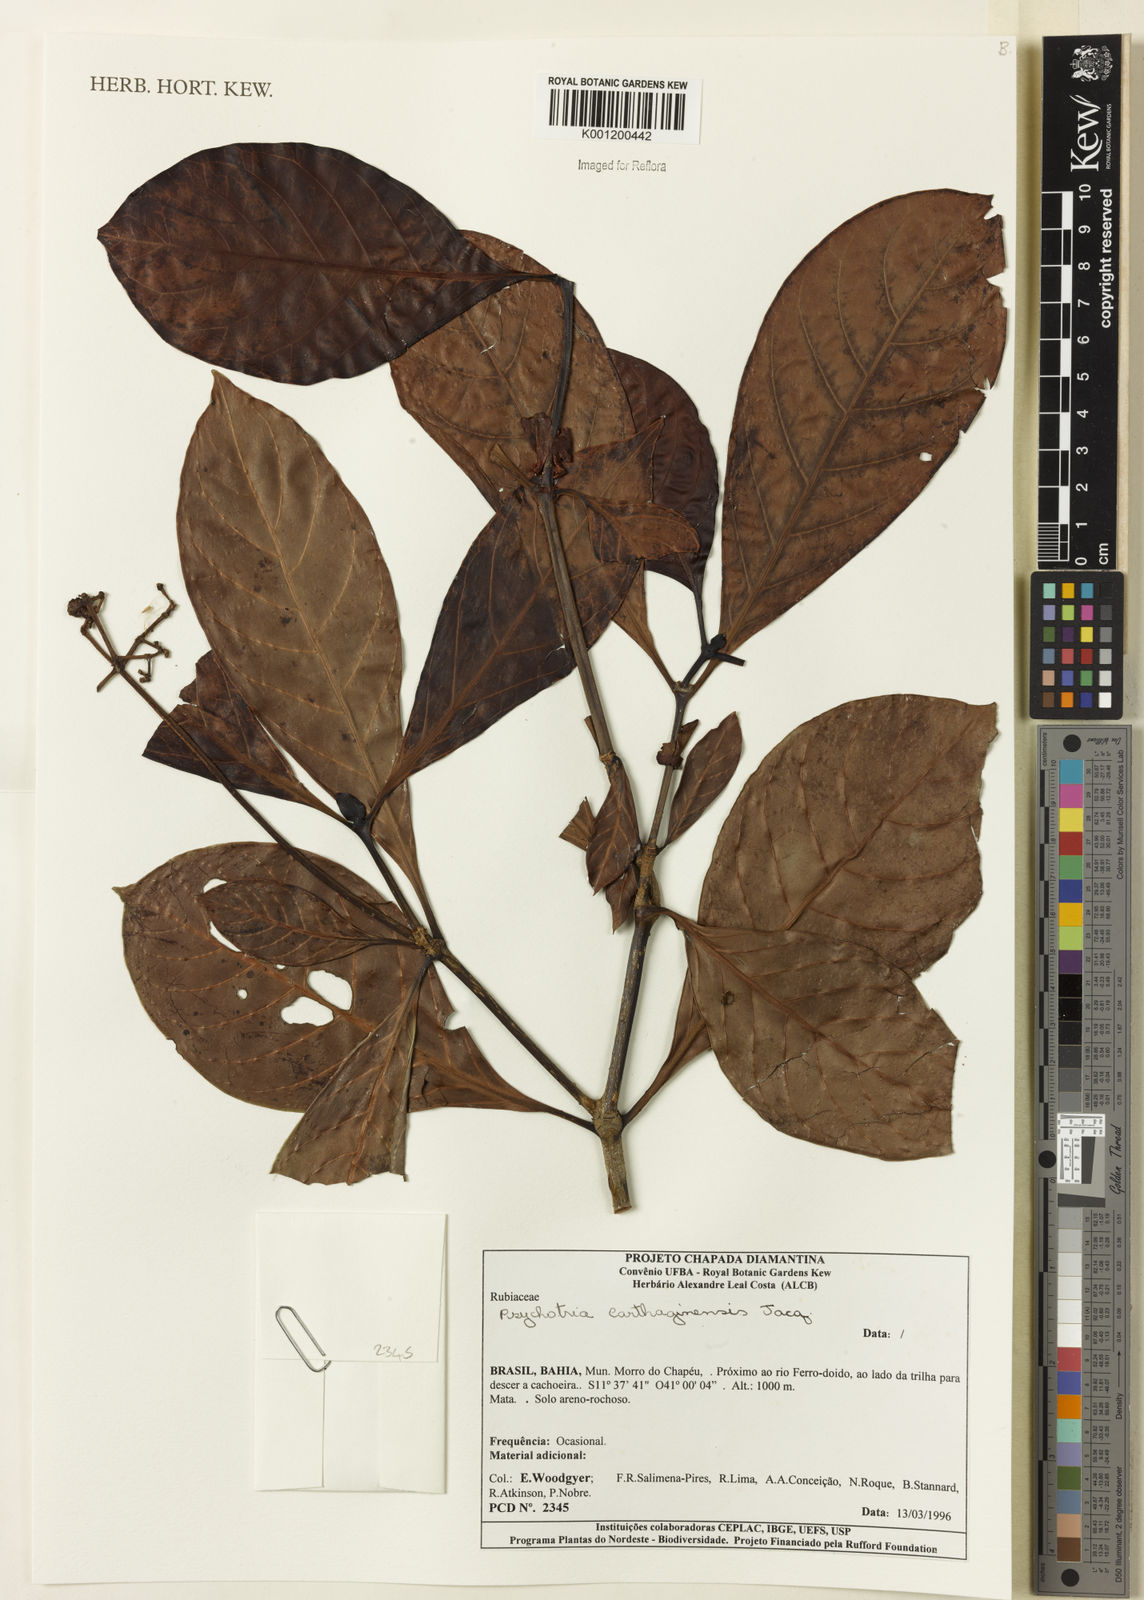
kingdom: Plantae
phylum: Tracheophyta
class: Magnoliopsida
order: Gentianales
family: Rubiaceae
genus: Psychotria
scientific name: Psychotria carthagenensis
